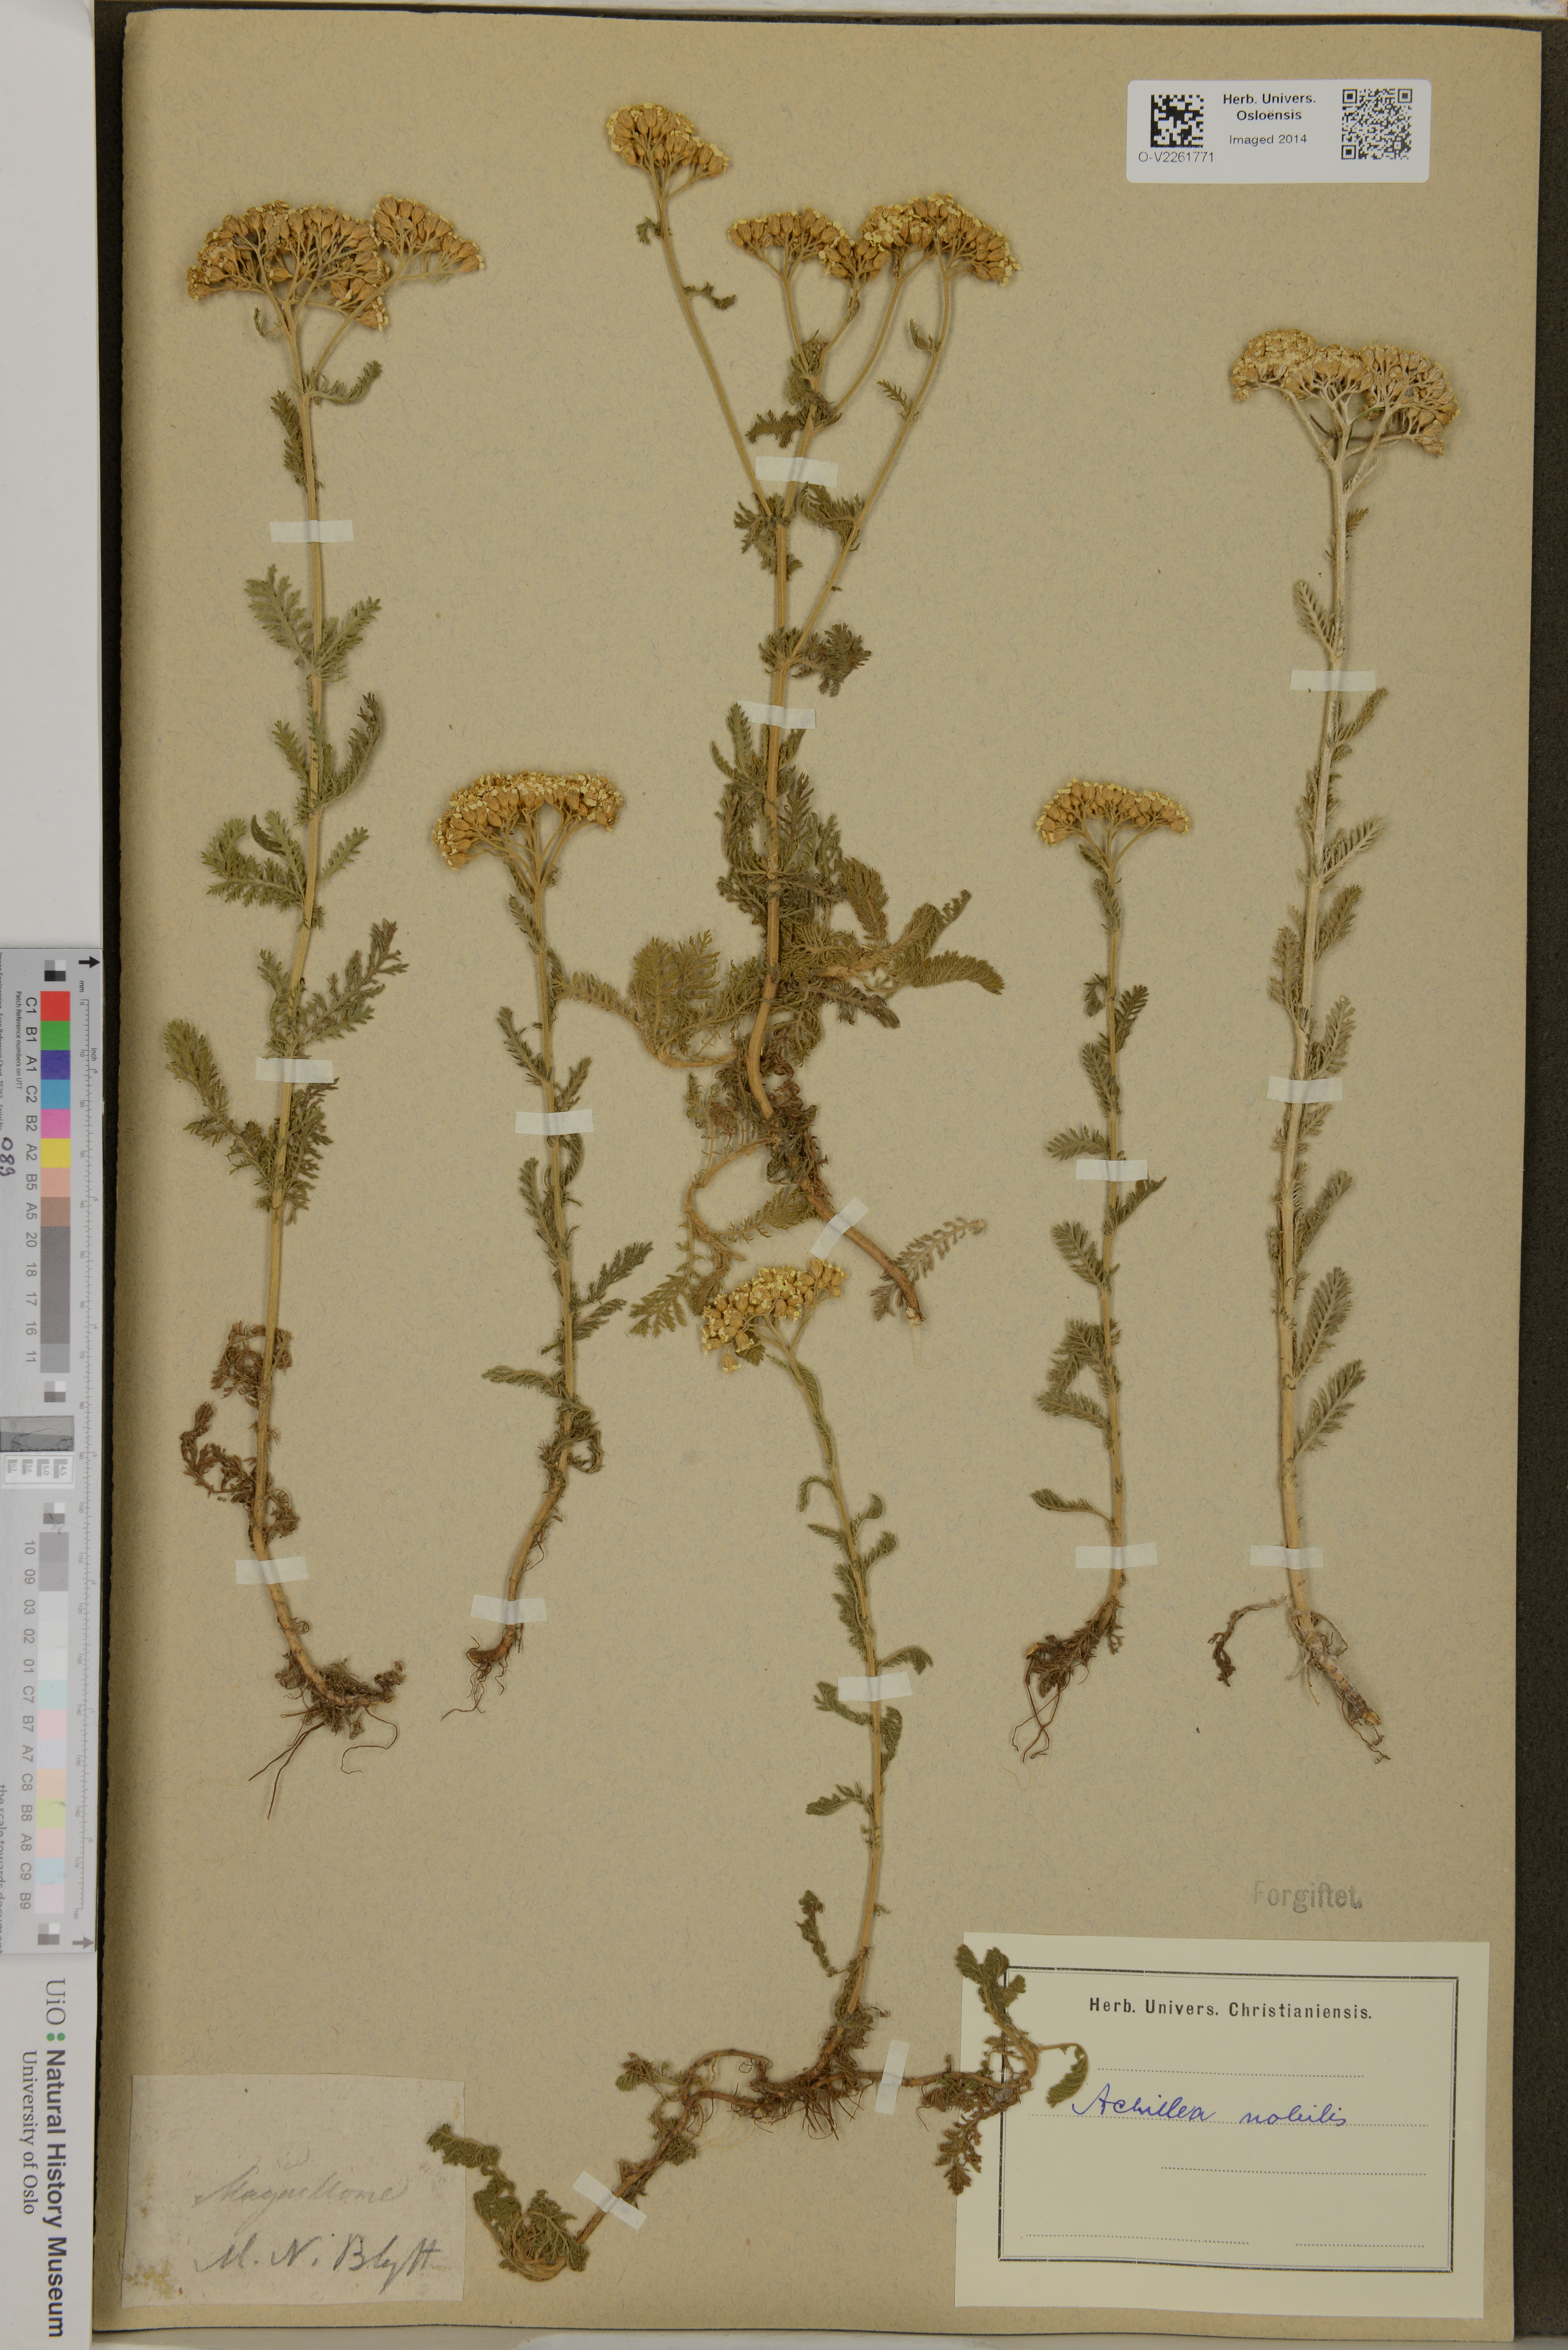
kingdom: Plantae
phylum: Tracheophyta
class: Magnoliopsida
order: Asterales
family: Asteraceae
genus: Achillea
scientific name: Achillea nobilis
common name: Noble yarrow
